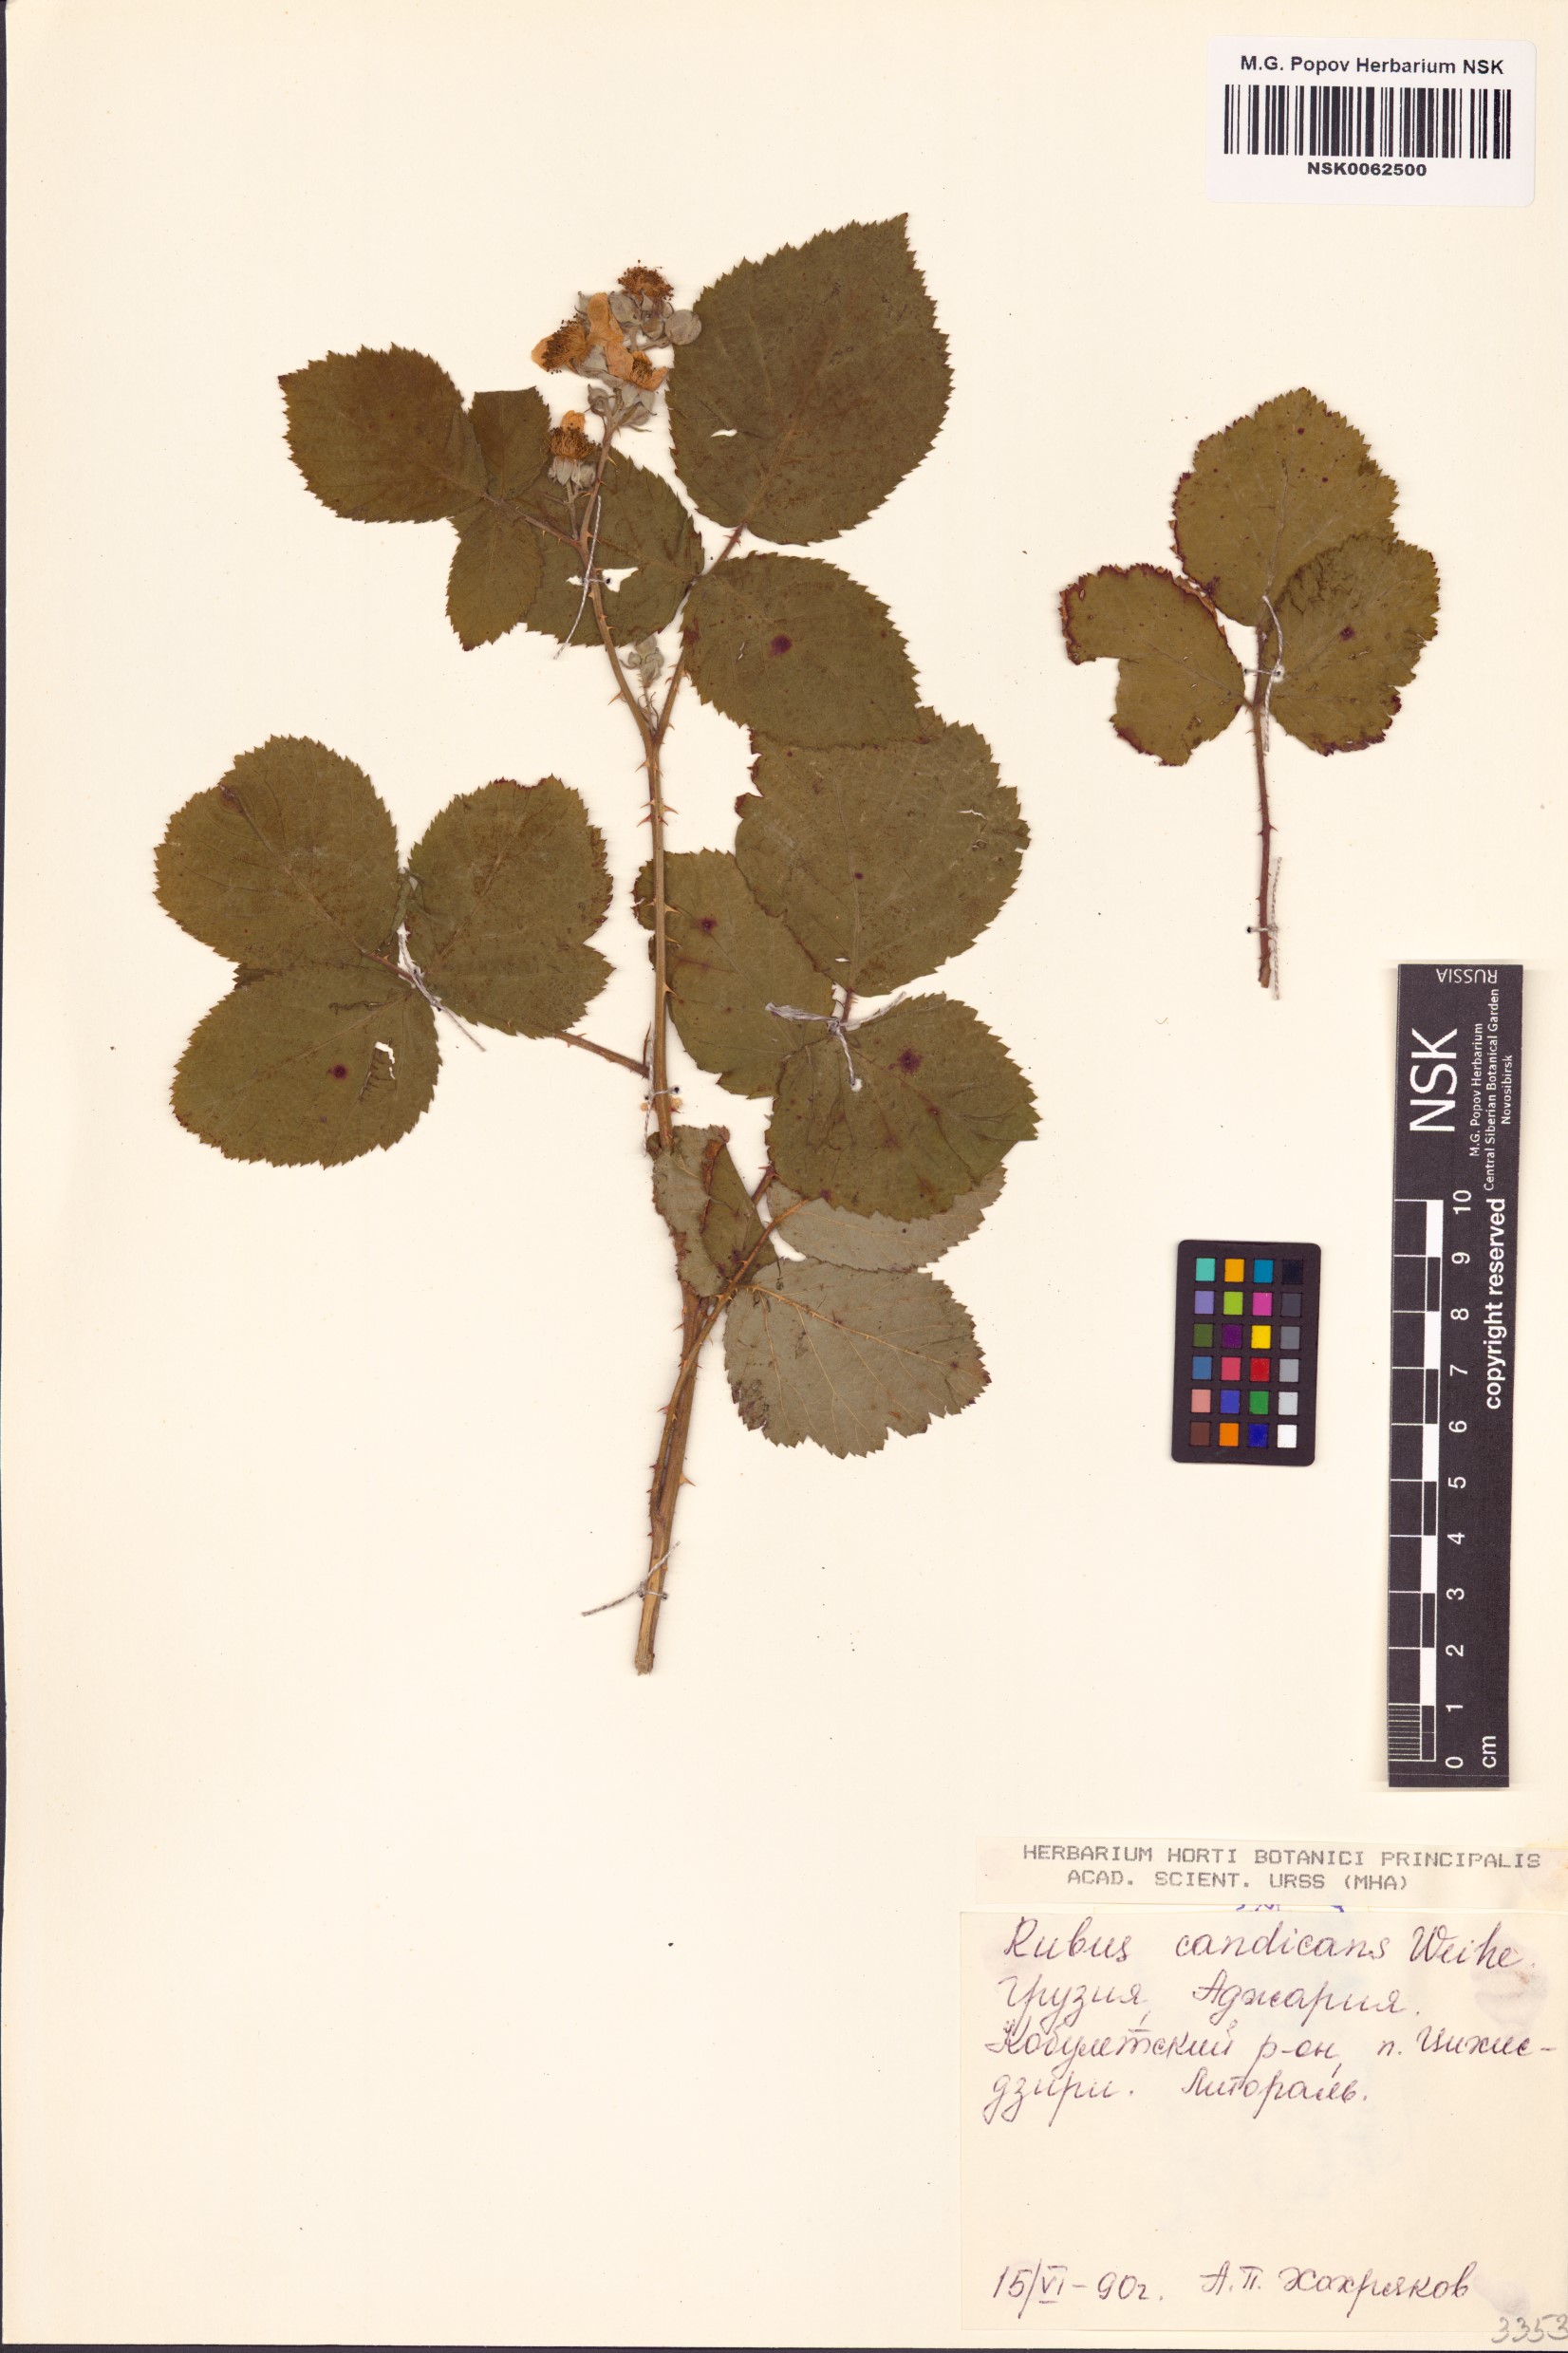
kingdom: Plantae
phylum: Tracheophyta
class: Magnoliopsida
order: Rosales
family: Rosaceae
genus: Rubus
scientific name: Rubus silesiacus
